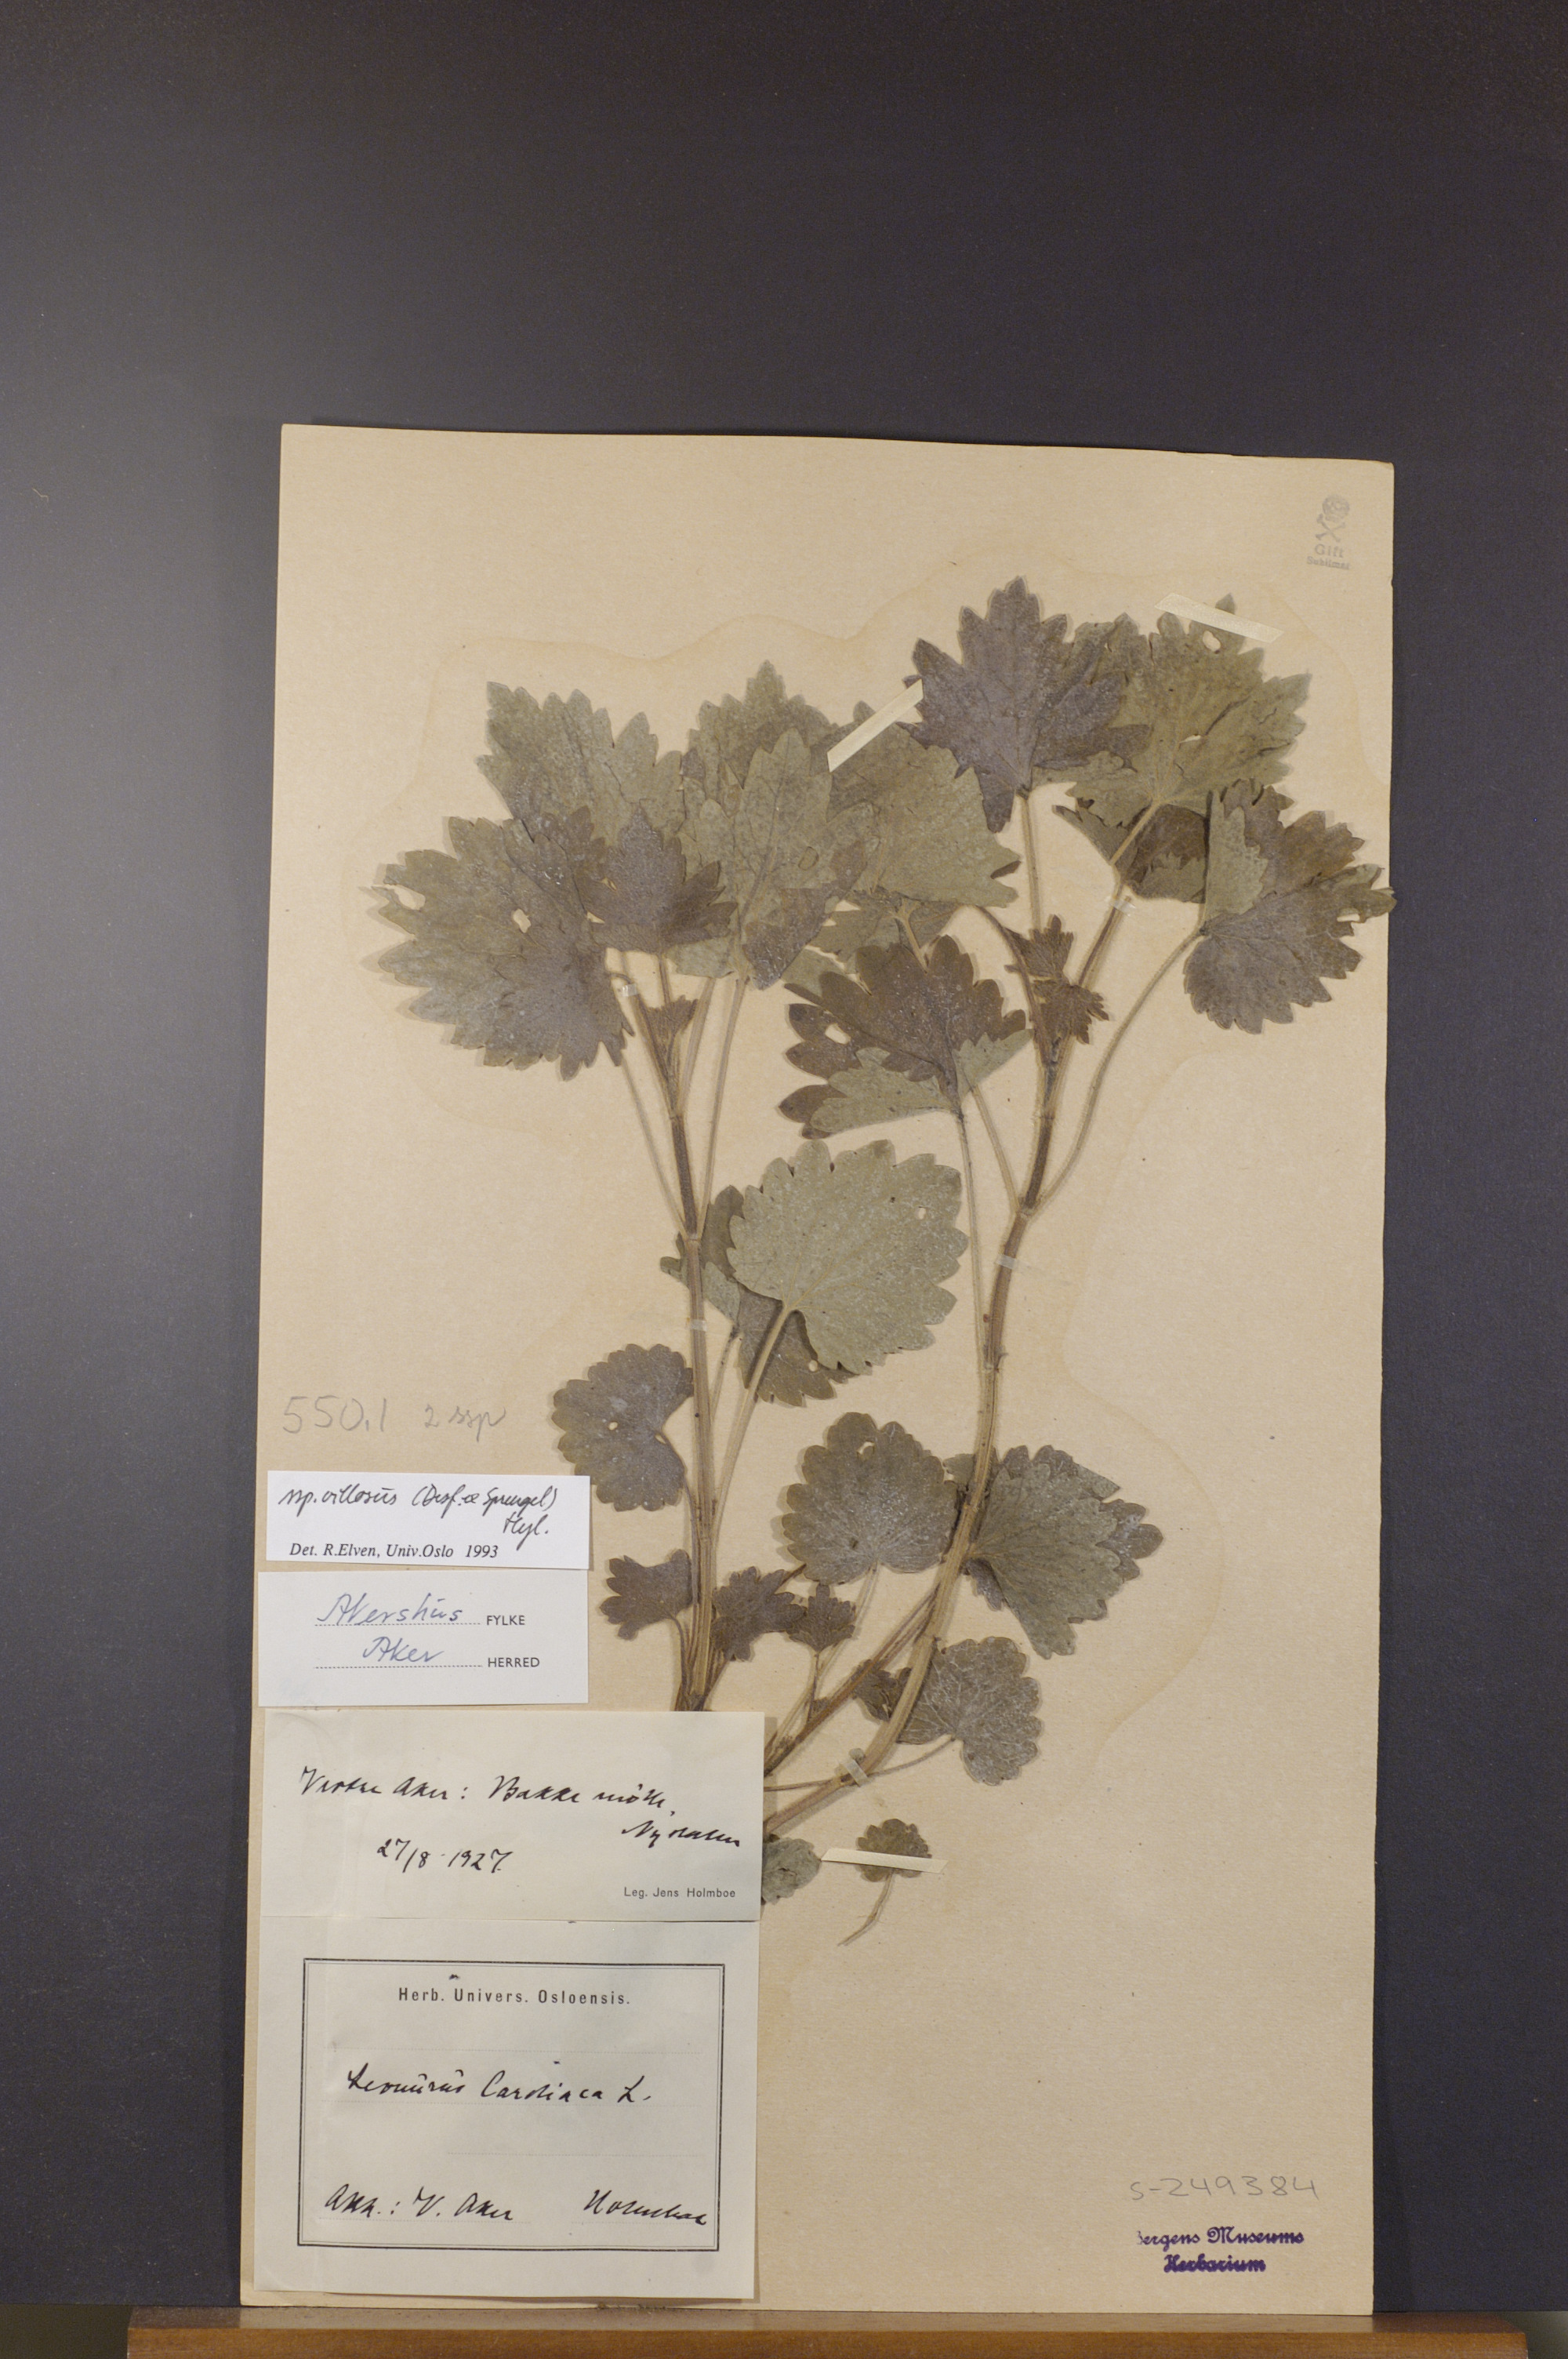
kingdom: Plantae
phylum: Tracheophyta
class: Magnoliopsida
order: Lamiales
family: Lamiaceae
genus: Leonurus
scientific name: Leonurus quinquelobatus
